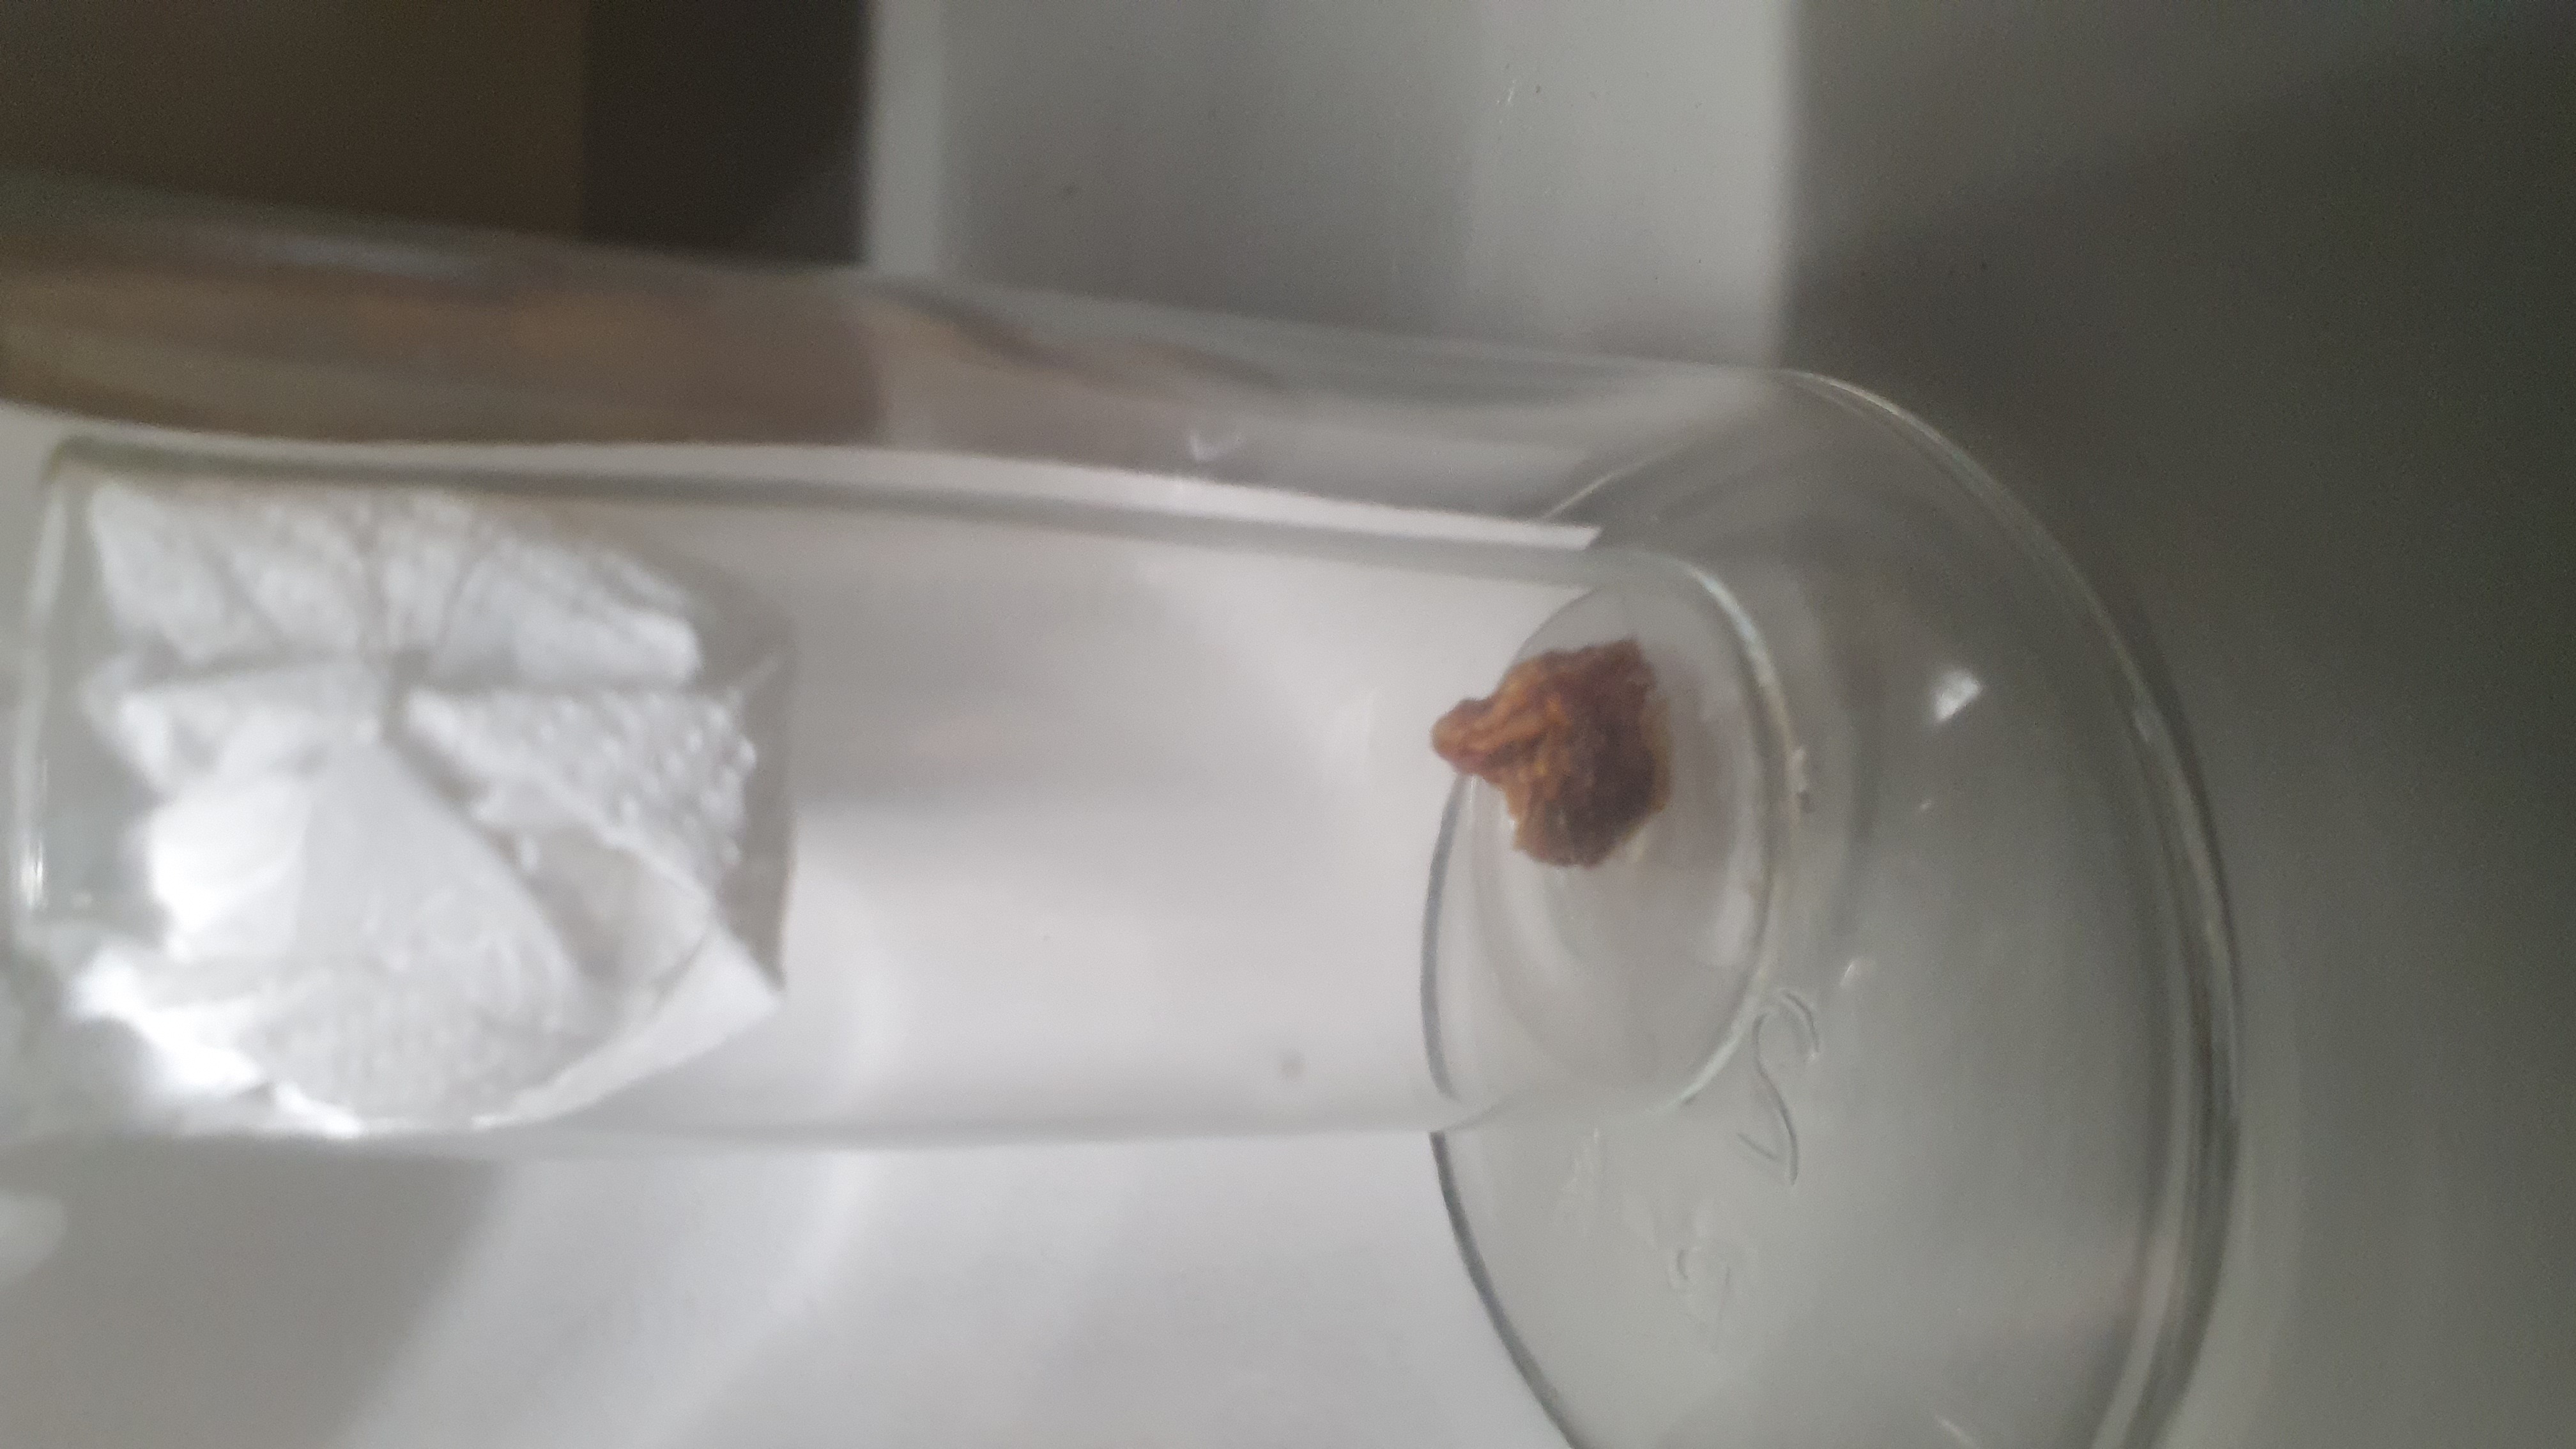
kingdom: Animalia
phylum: Chordata
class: Mammalia
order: Diprotodontia
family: Macropodidae
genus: Dendrolagus
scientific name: Dendrolagus lumholtzi
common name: Lumholtz's tree kangaroo
